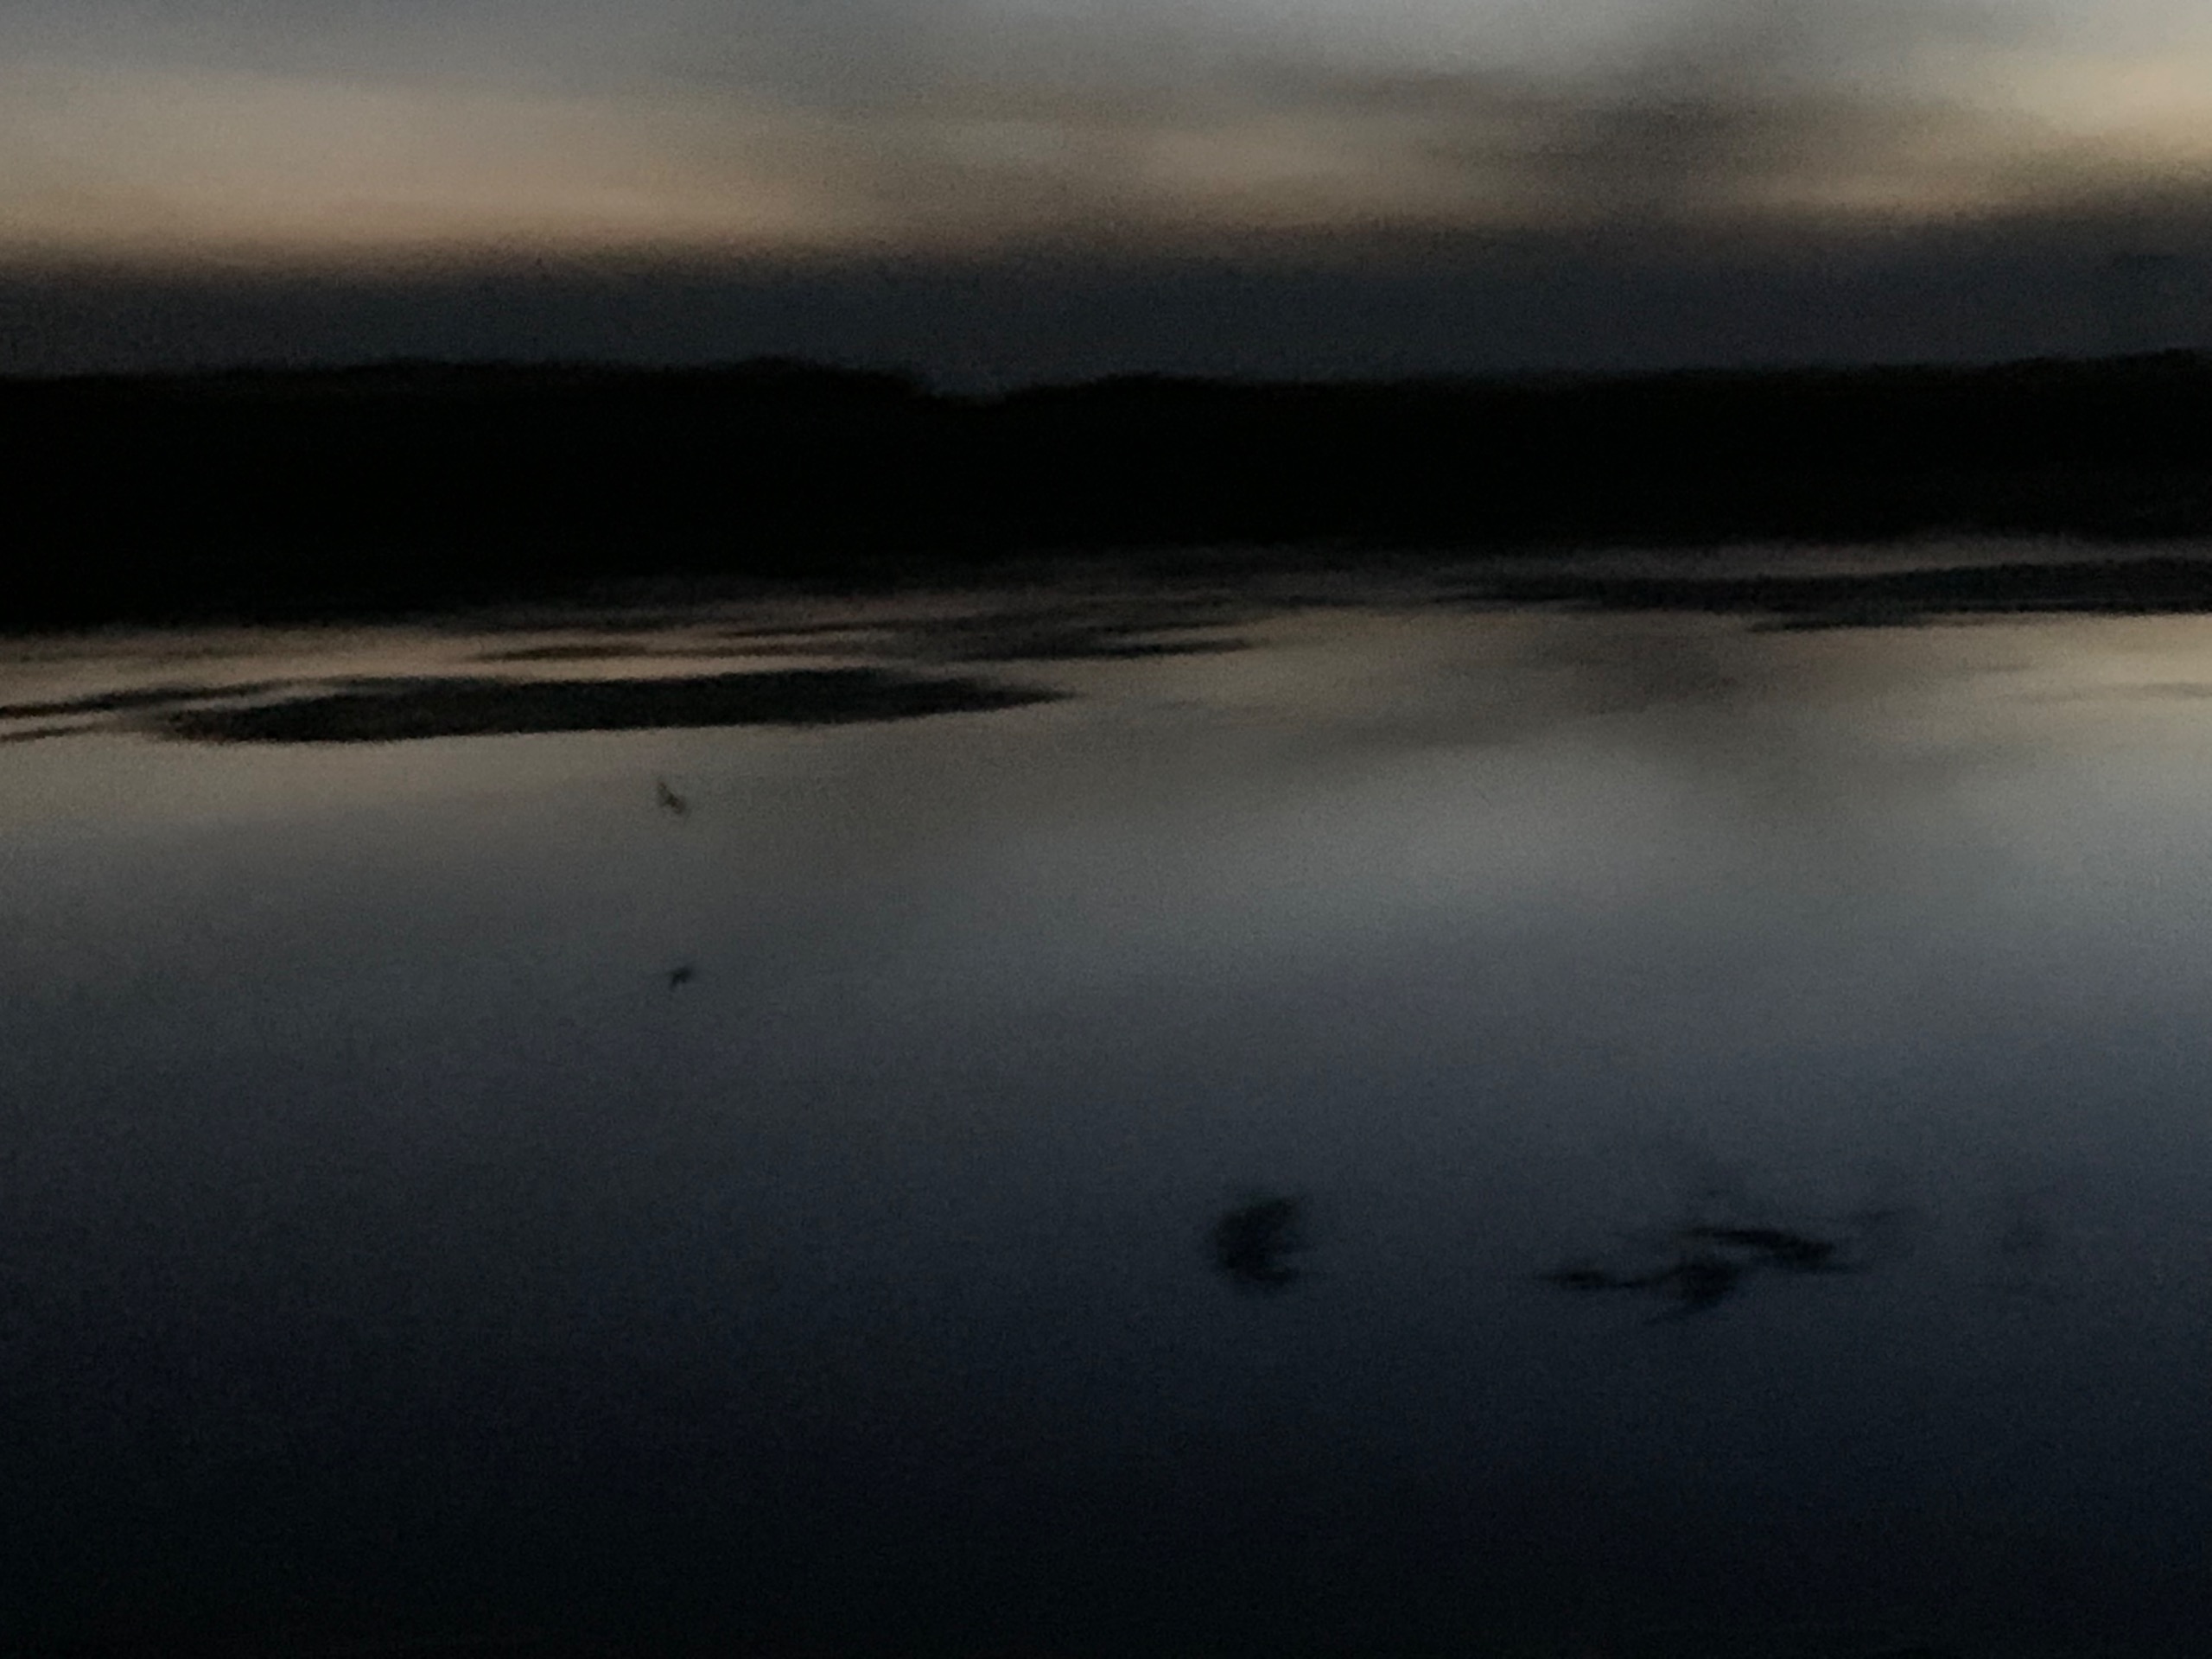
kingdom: Animalia
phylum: Chordata
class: Mammalia
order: Chiroptera
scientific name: Chiroptera
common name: Flagermus
